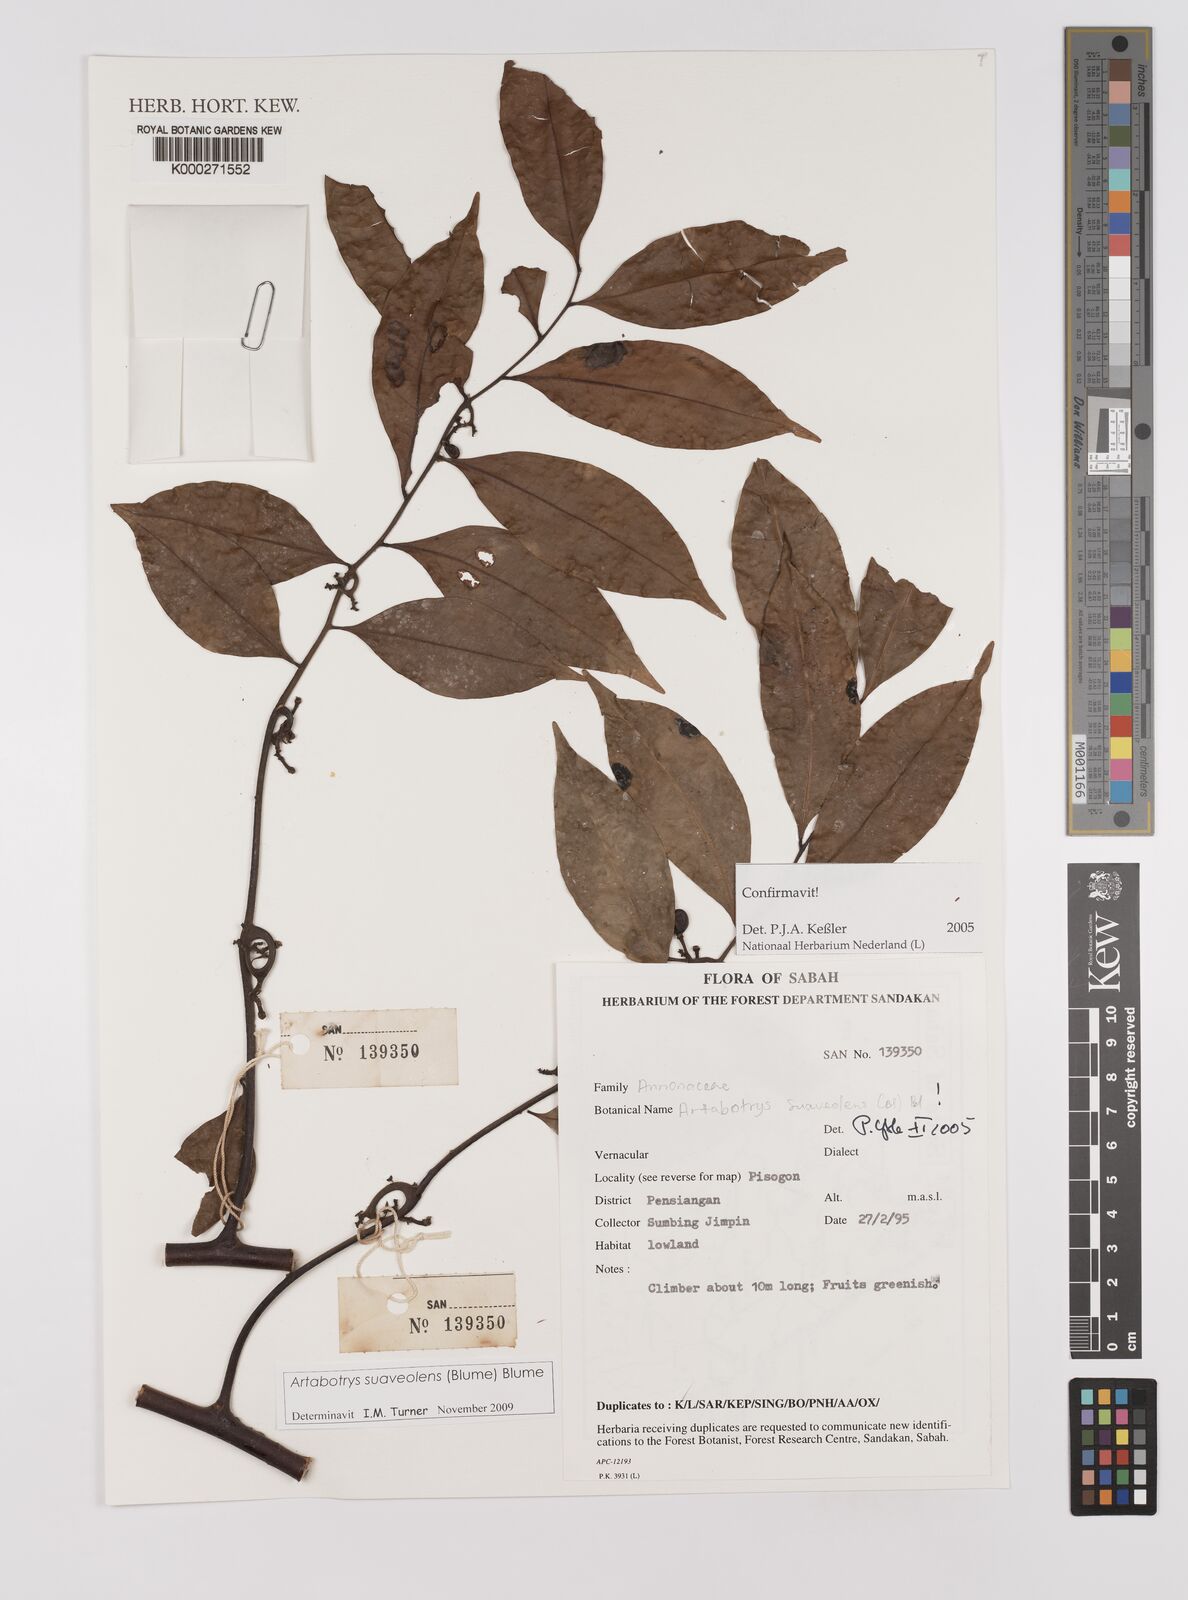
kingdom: Plantae
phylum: Tracheophyta
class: Magnoliopsida
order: Magnoliales
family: Annonaceae
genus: Artabotrys
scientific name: Artabotrys suaveolens
